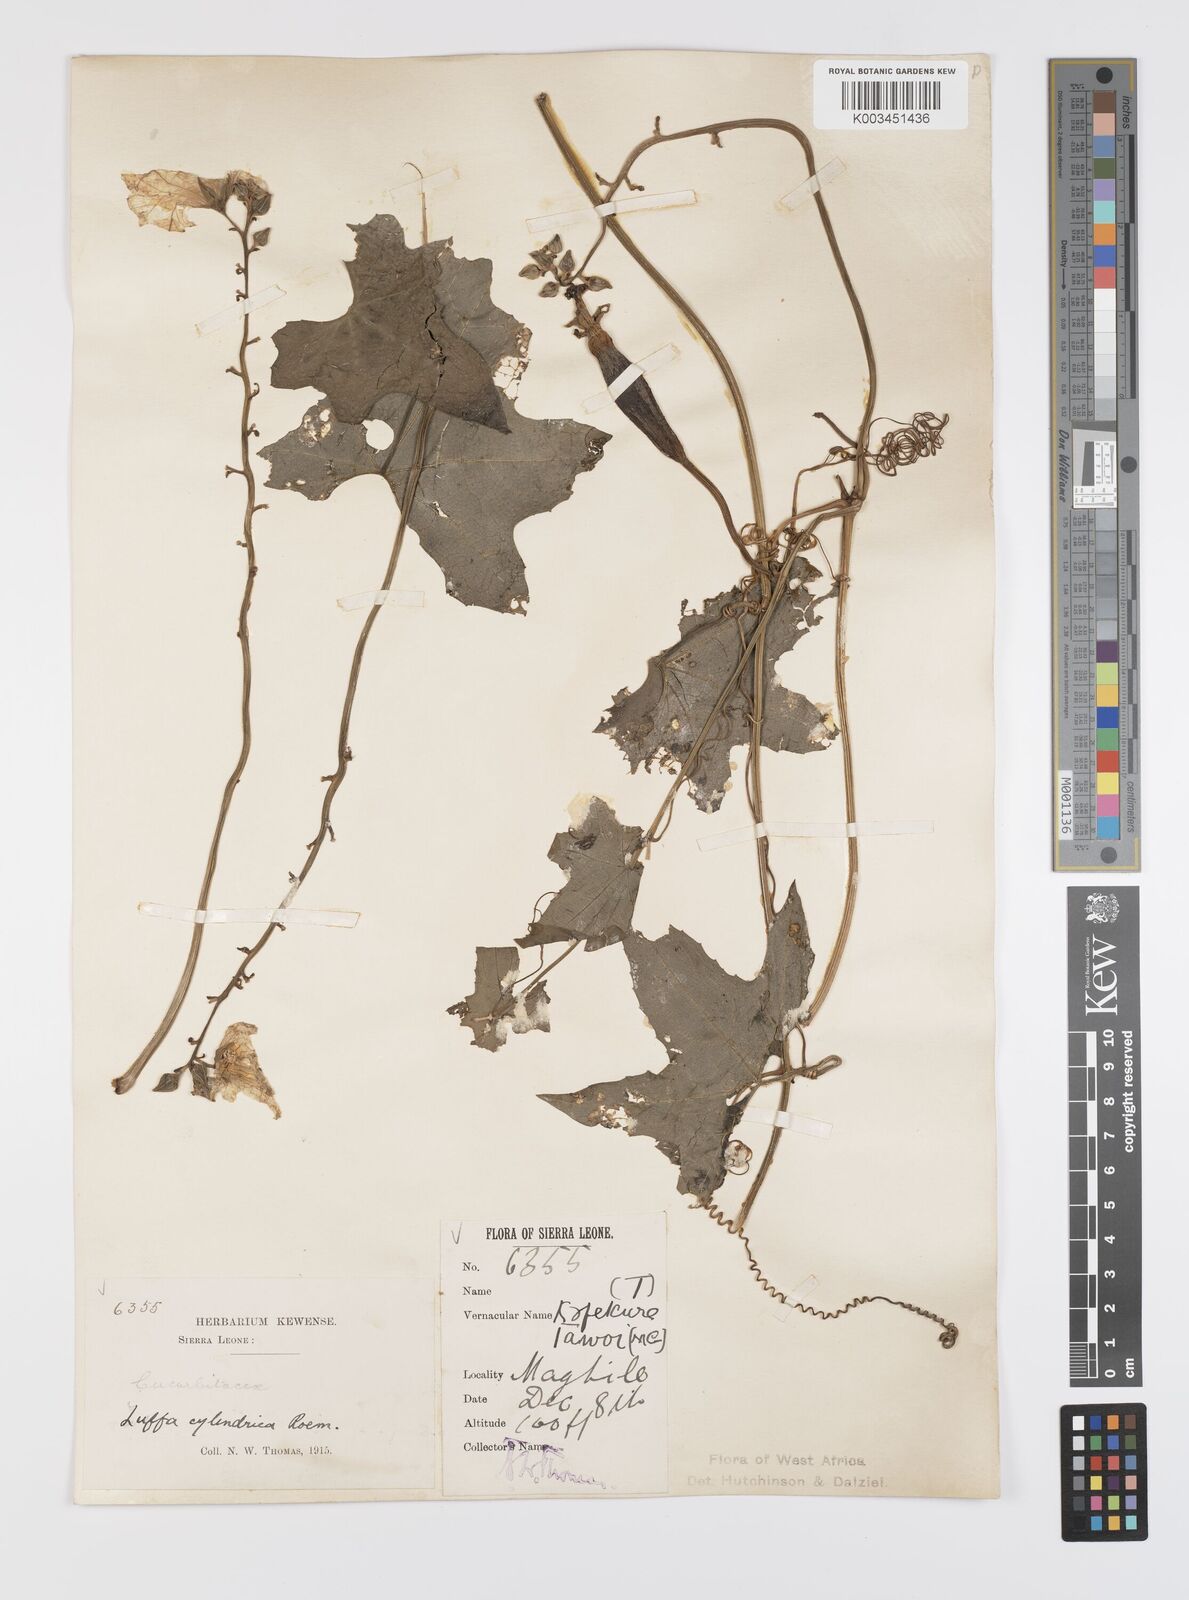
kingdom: Plantae
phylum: Tracheophyta
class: Magnoliopsida
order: Cucurbitales
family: Cucurbitaceae
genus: Luffa
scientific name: Luffa aegyptiaca
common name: Sponge gourd
